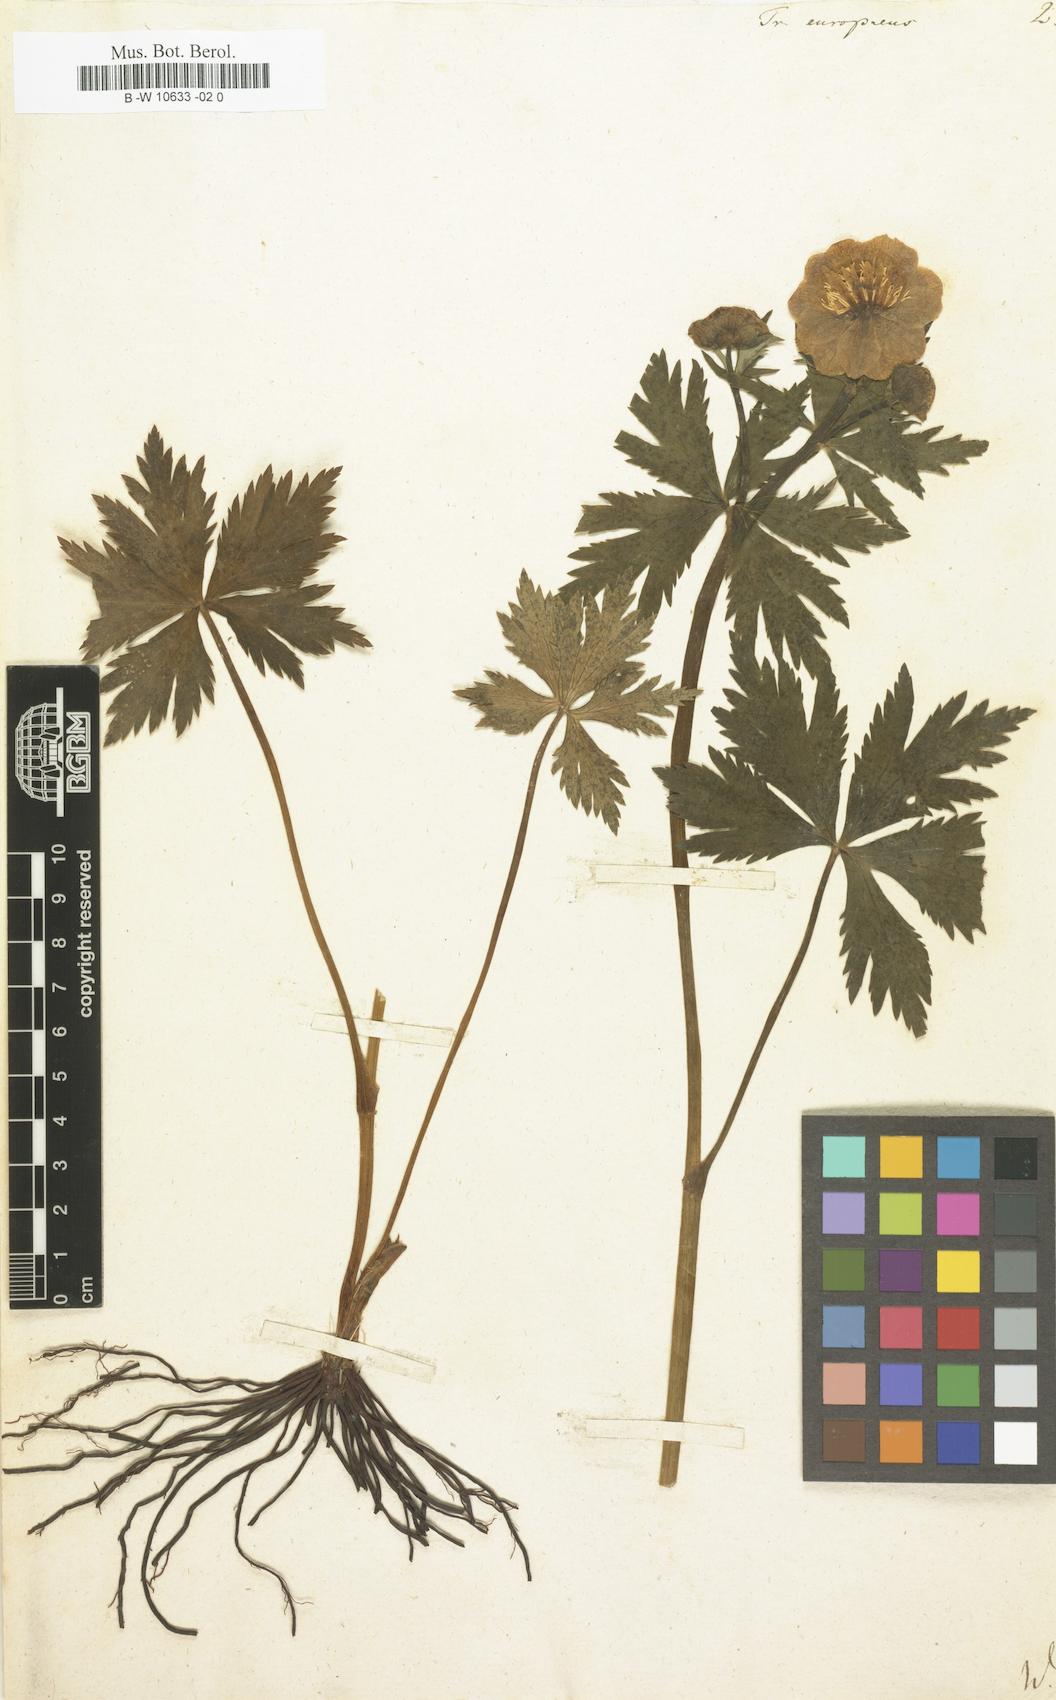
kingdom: Plantae
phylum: Tracheophyta
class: Magnoliopsida
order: Ranunculales
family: Ranunculaceae
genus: Trollius
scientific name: Trollius europaeus
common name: European globeflower
